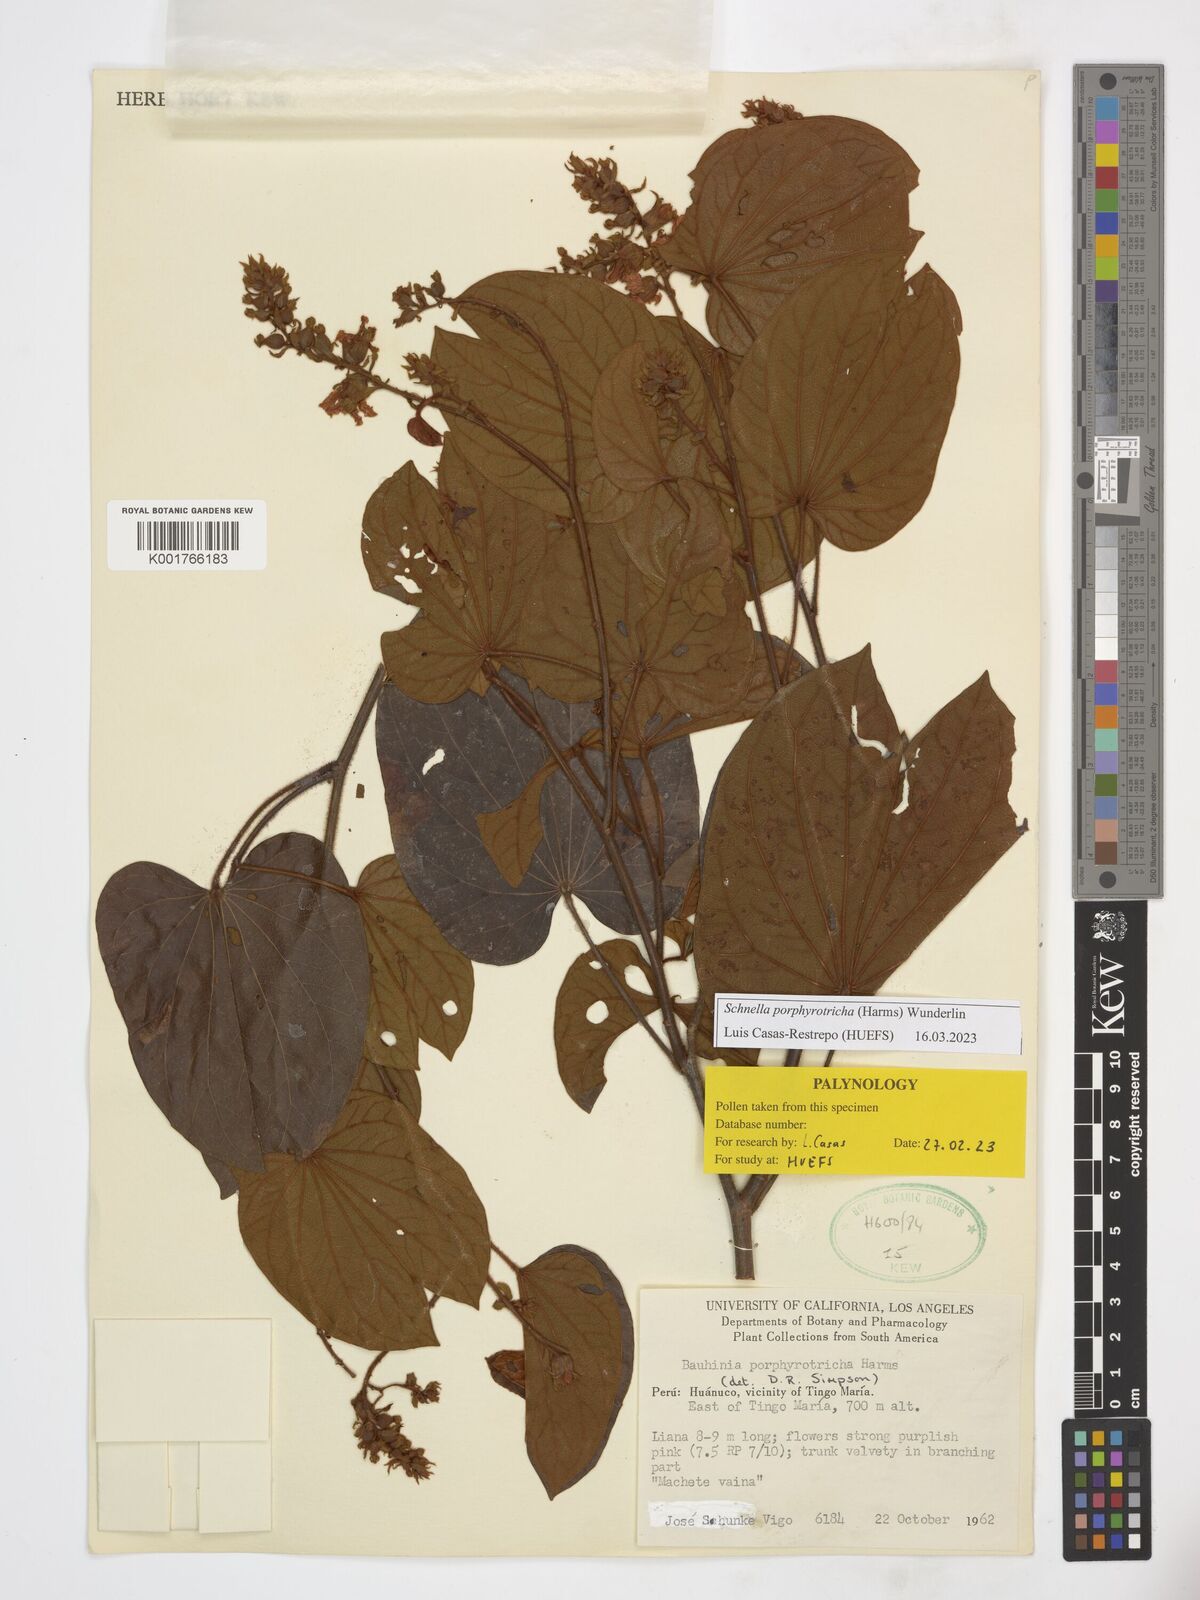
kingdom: Plantae
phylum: Tracheophyta
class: Magnoliopsida
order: Fabales
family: Fabaceae
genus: Schnella
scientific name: Schnella porphyrotricha
